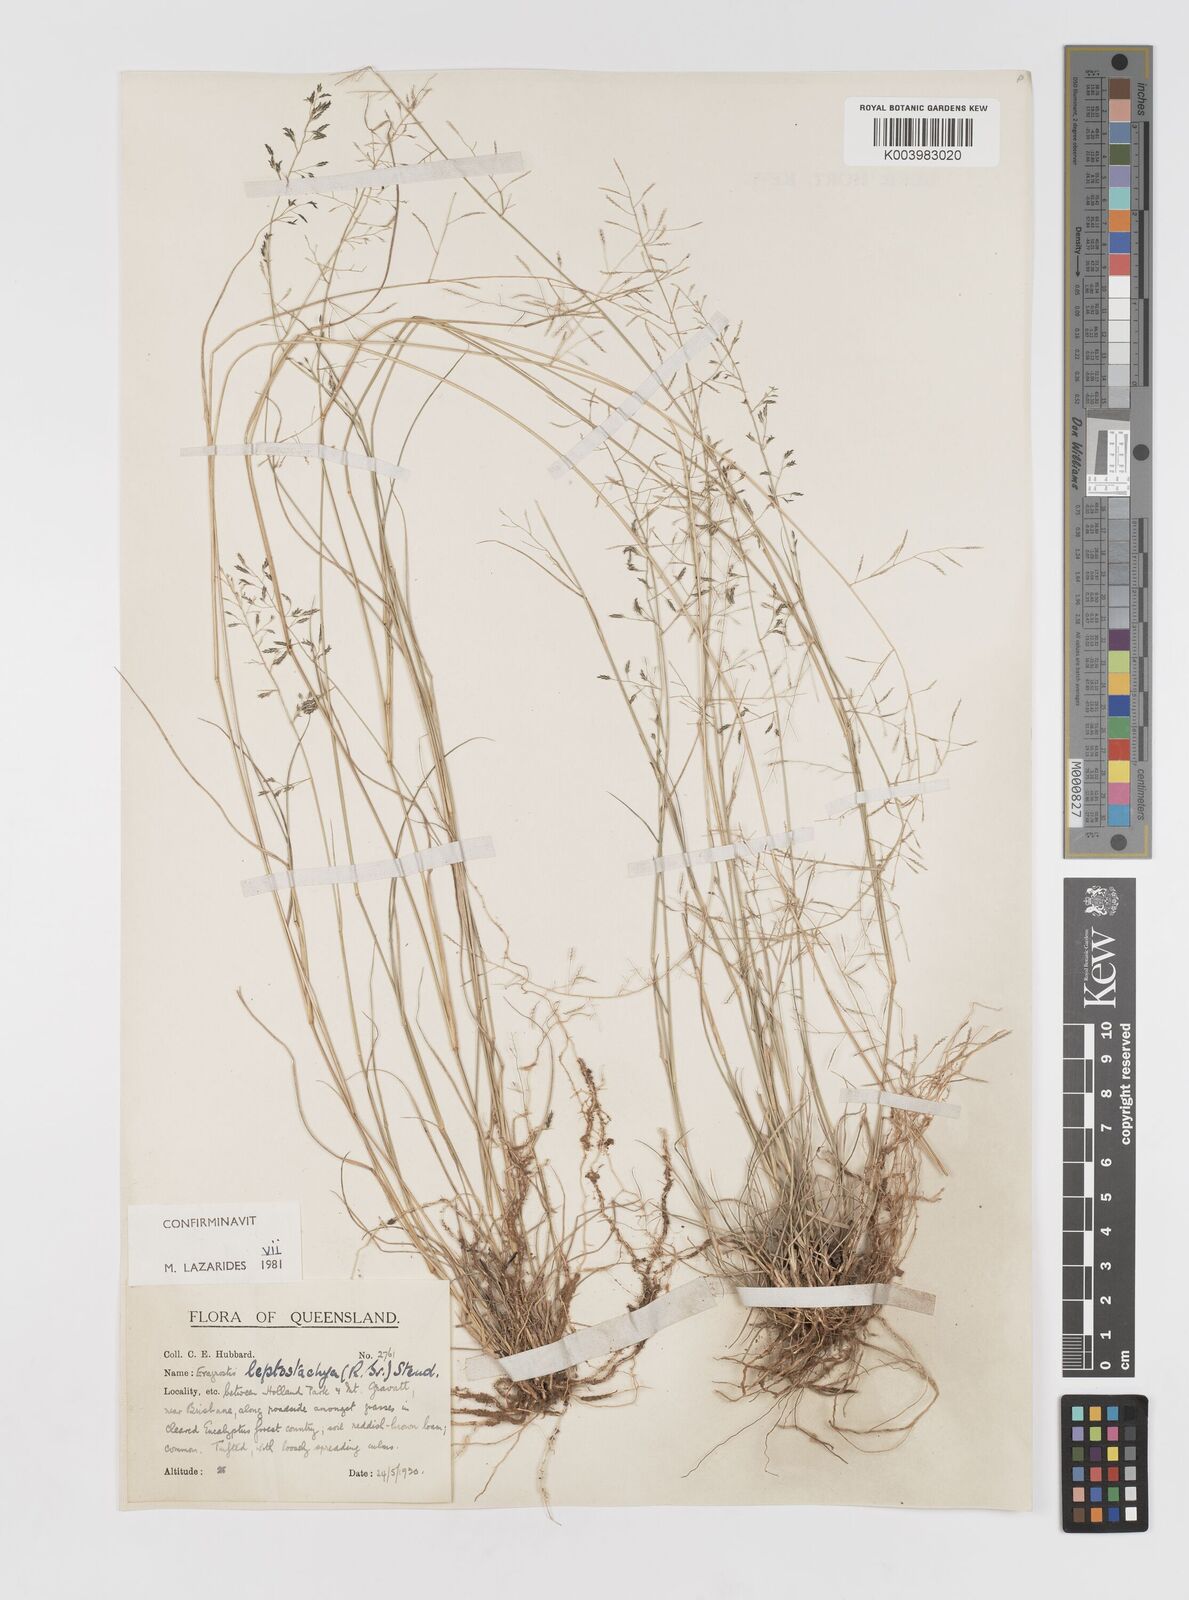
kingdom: Plantae
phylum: Tracheophyta
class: Liliopsida
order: Poales
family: Poaceae
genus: Eragrostis
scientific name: Eragrostis leptostachya
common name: Australian lovegrass
